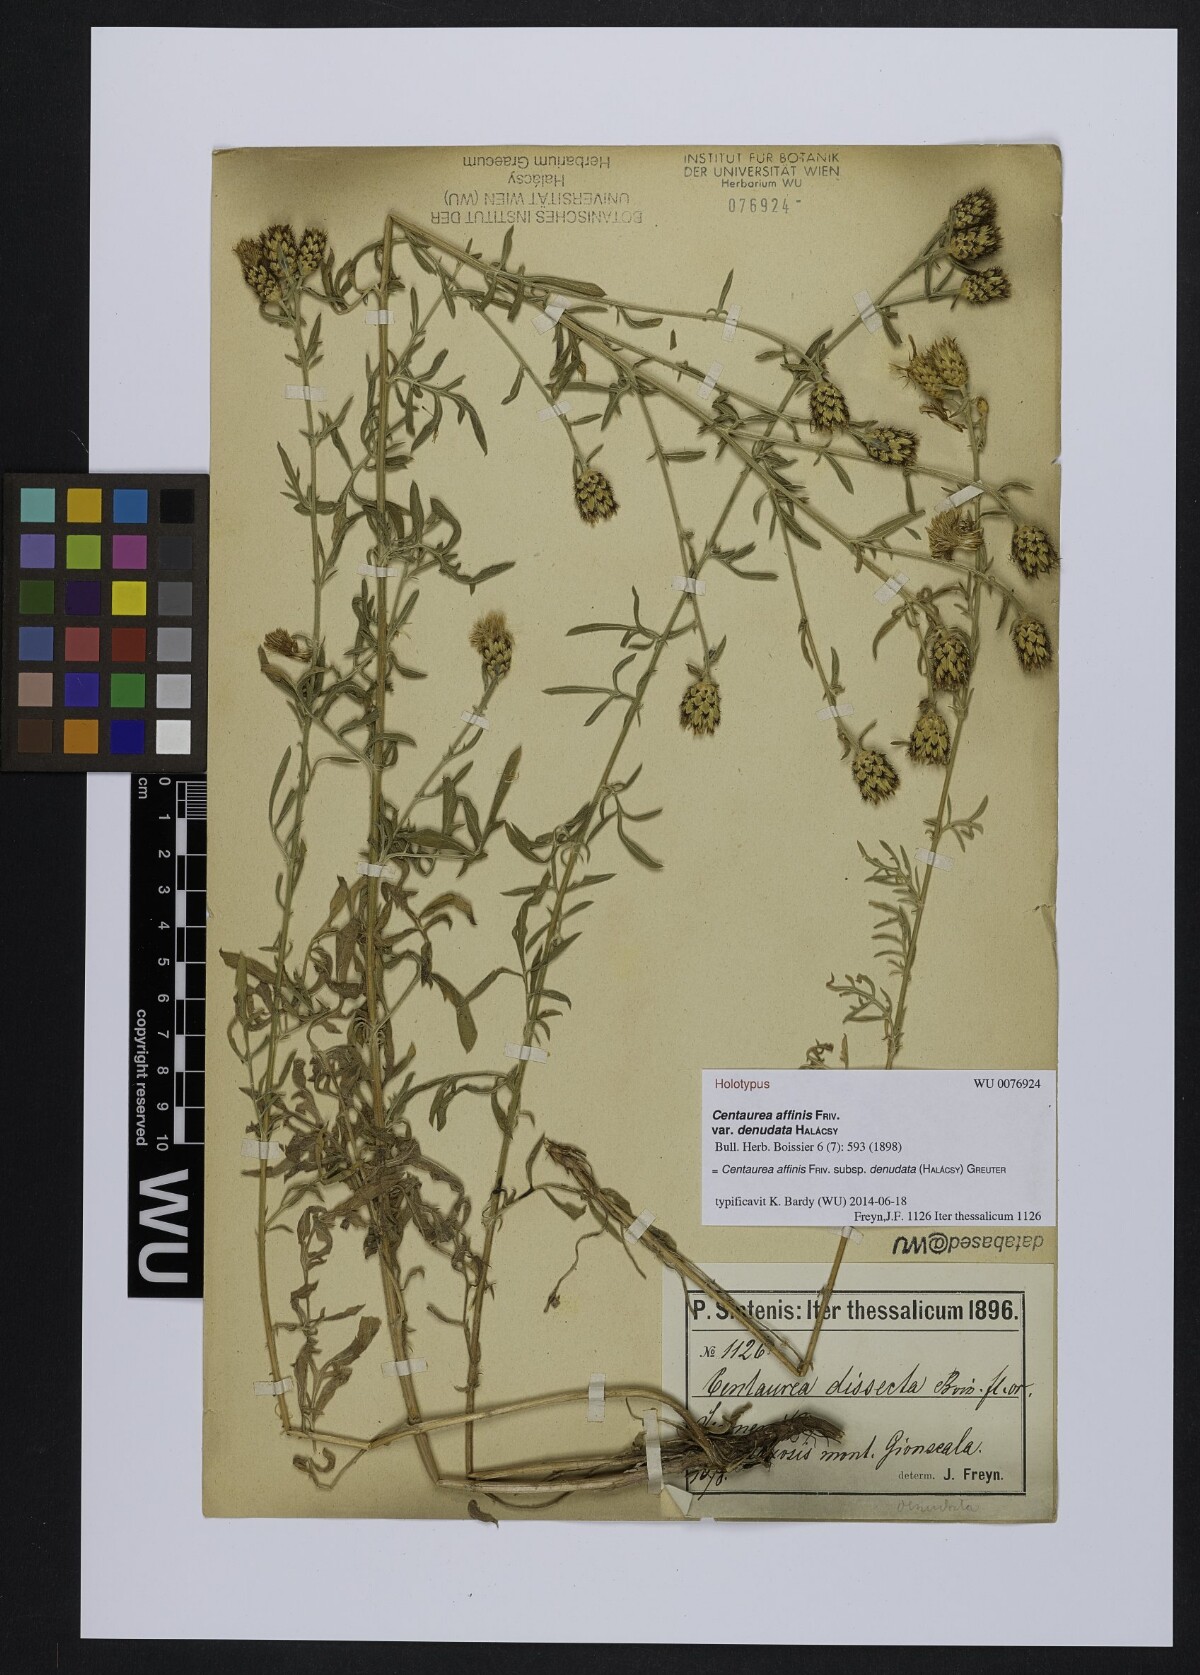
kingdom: Plantae
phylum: Tracheophyta
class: Magnoliopsida
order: Asterales
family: Asteraceae
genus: Centaurea
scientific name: Centaurea affinis
